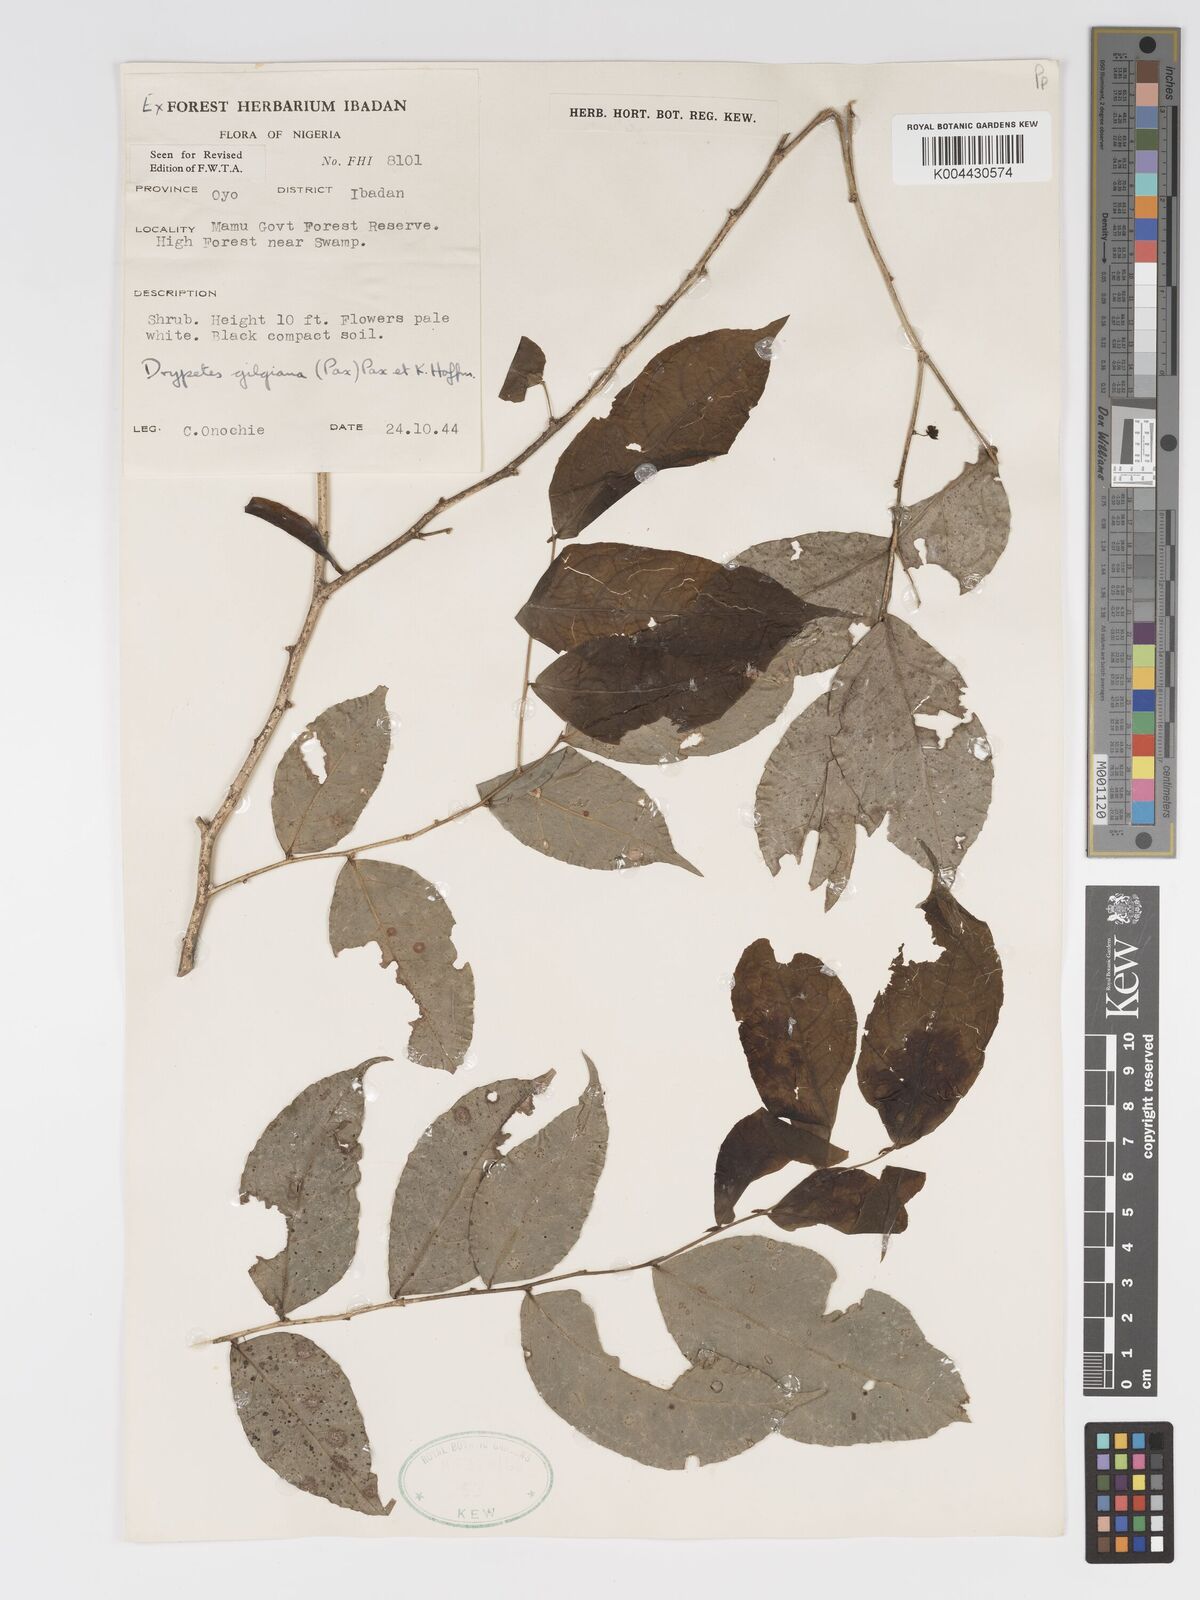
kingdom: Plantae
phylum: Tracheophyta
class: Magnoliopsida
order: Malpighiales
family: Putranjivaceae
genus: Drypetes
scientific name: Drypetes gilgiana
